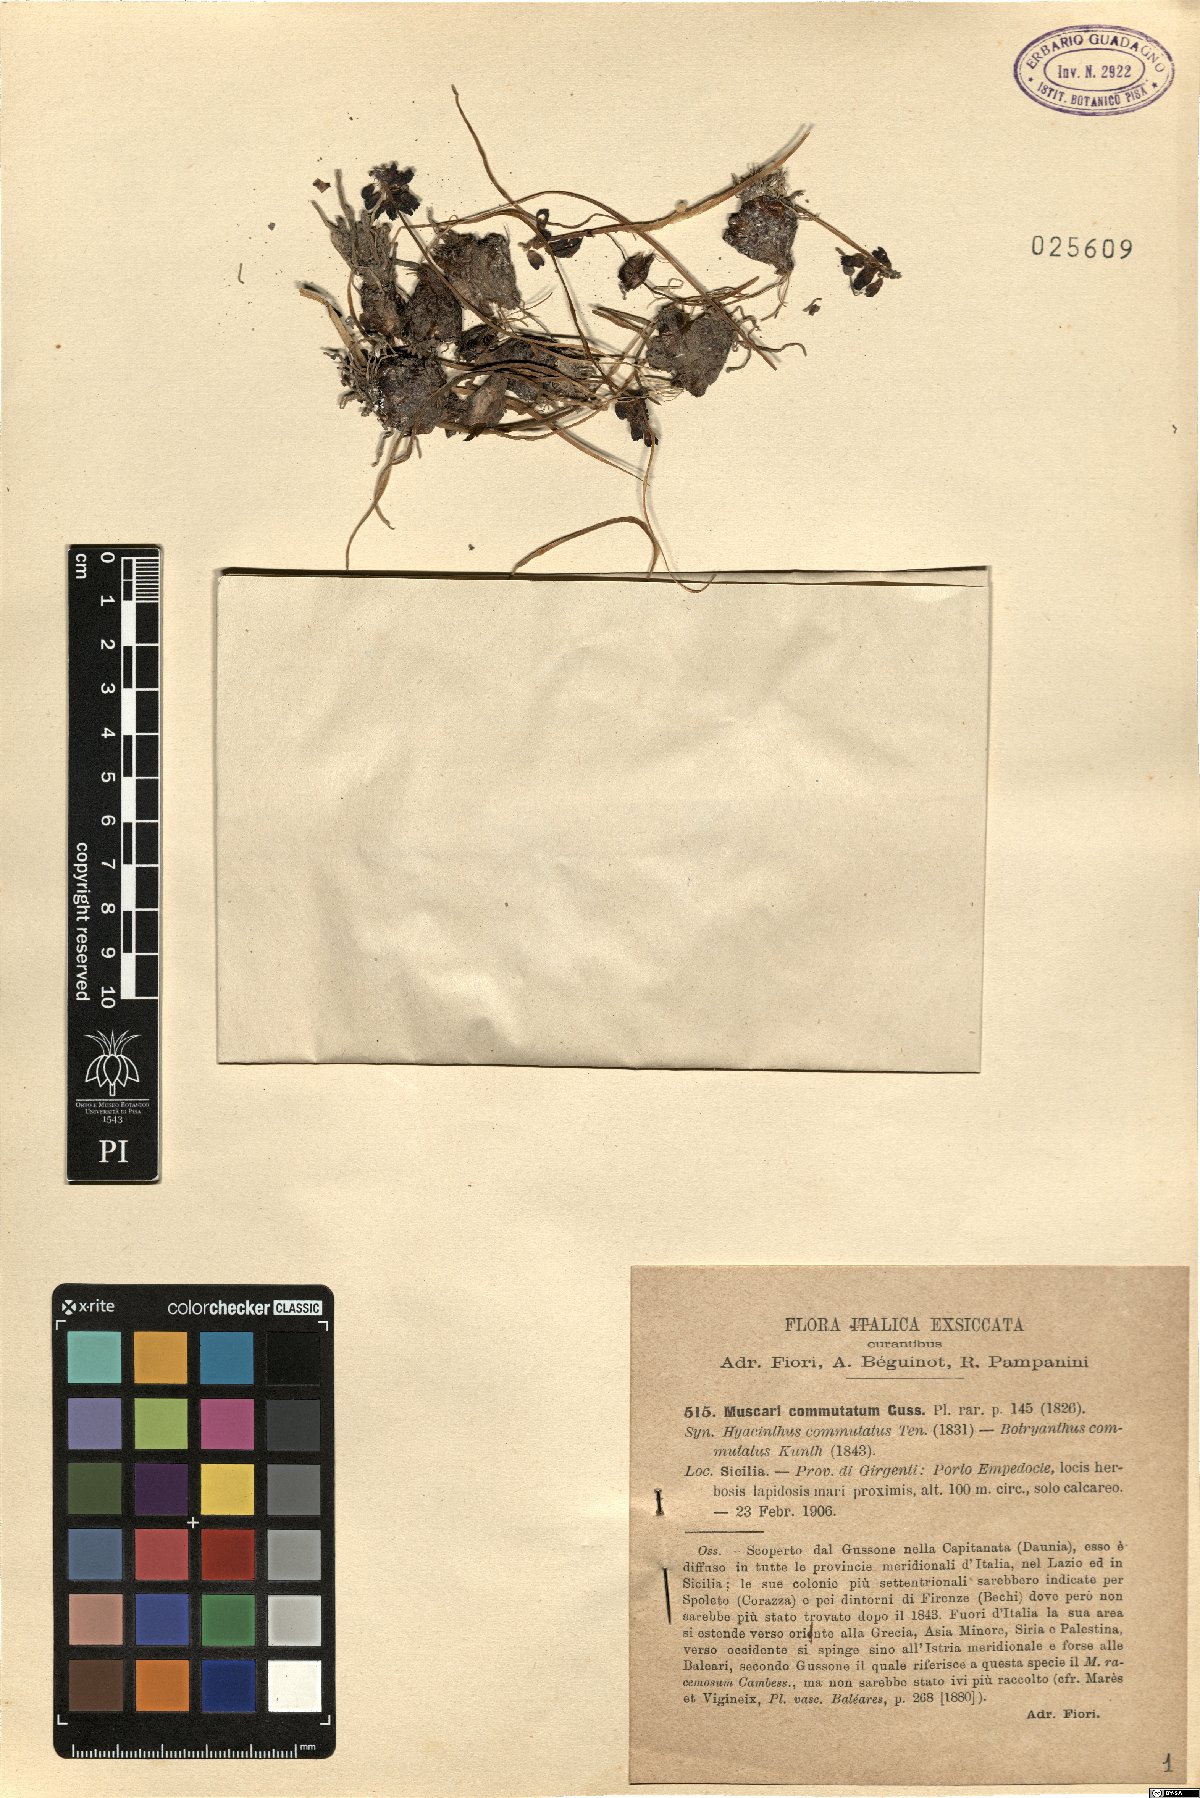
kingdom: Plantae
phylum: Tracheophyta
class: Liliopsida
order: Asparagales
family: Asparagaceae
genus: Muscari
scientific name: Muscari commutatum
